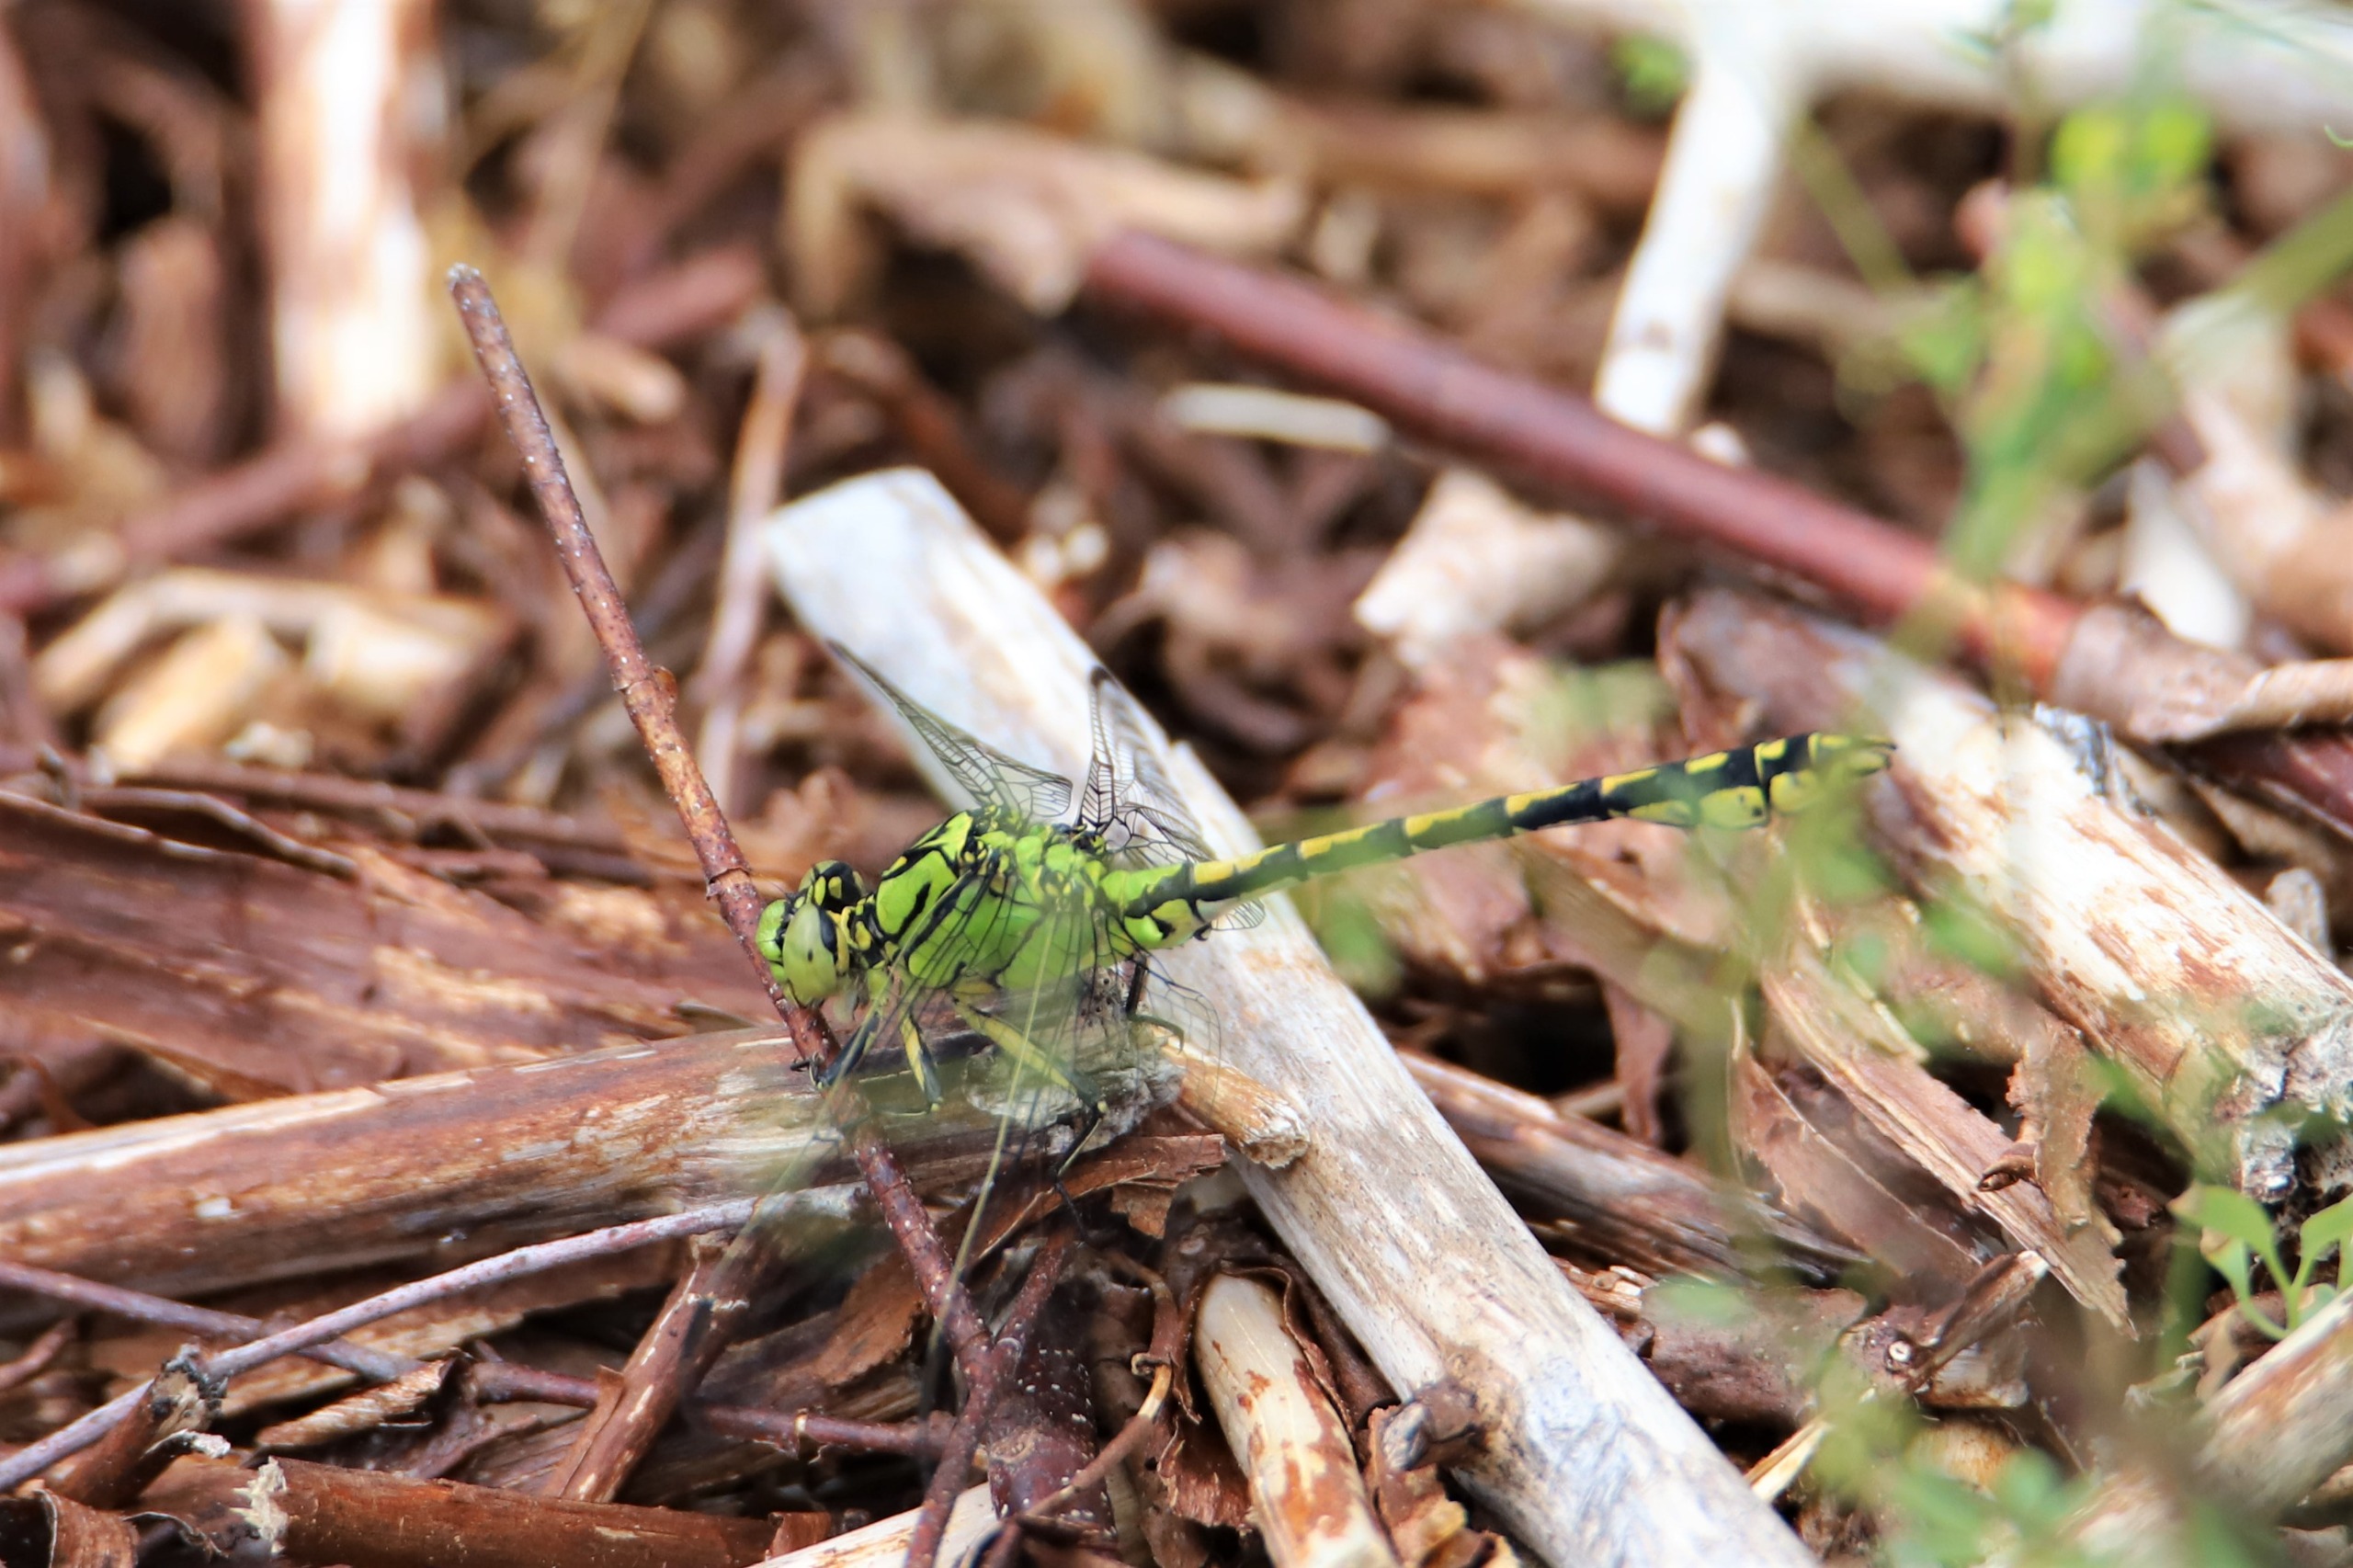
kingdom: Animalia
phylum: Arthropoda
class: Insecta
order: Odonata
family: Gomphidae
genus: Ophiogomphus
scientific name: Ophiogomphus cecilia
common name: Grøn kølleguldsmed
